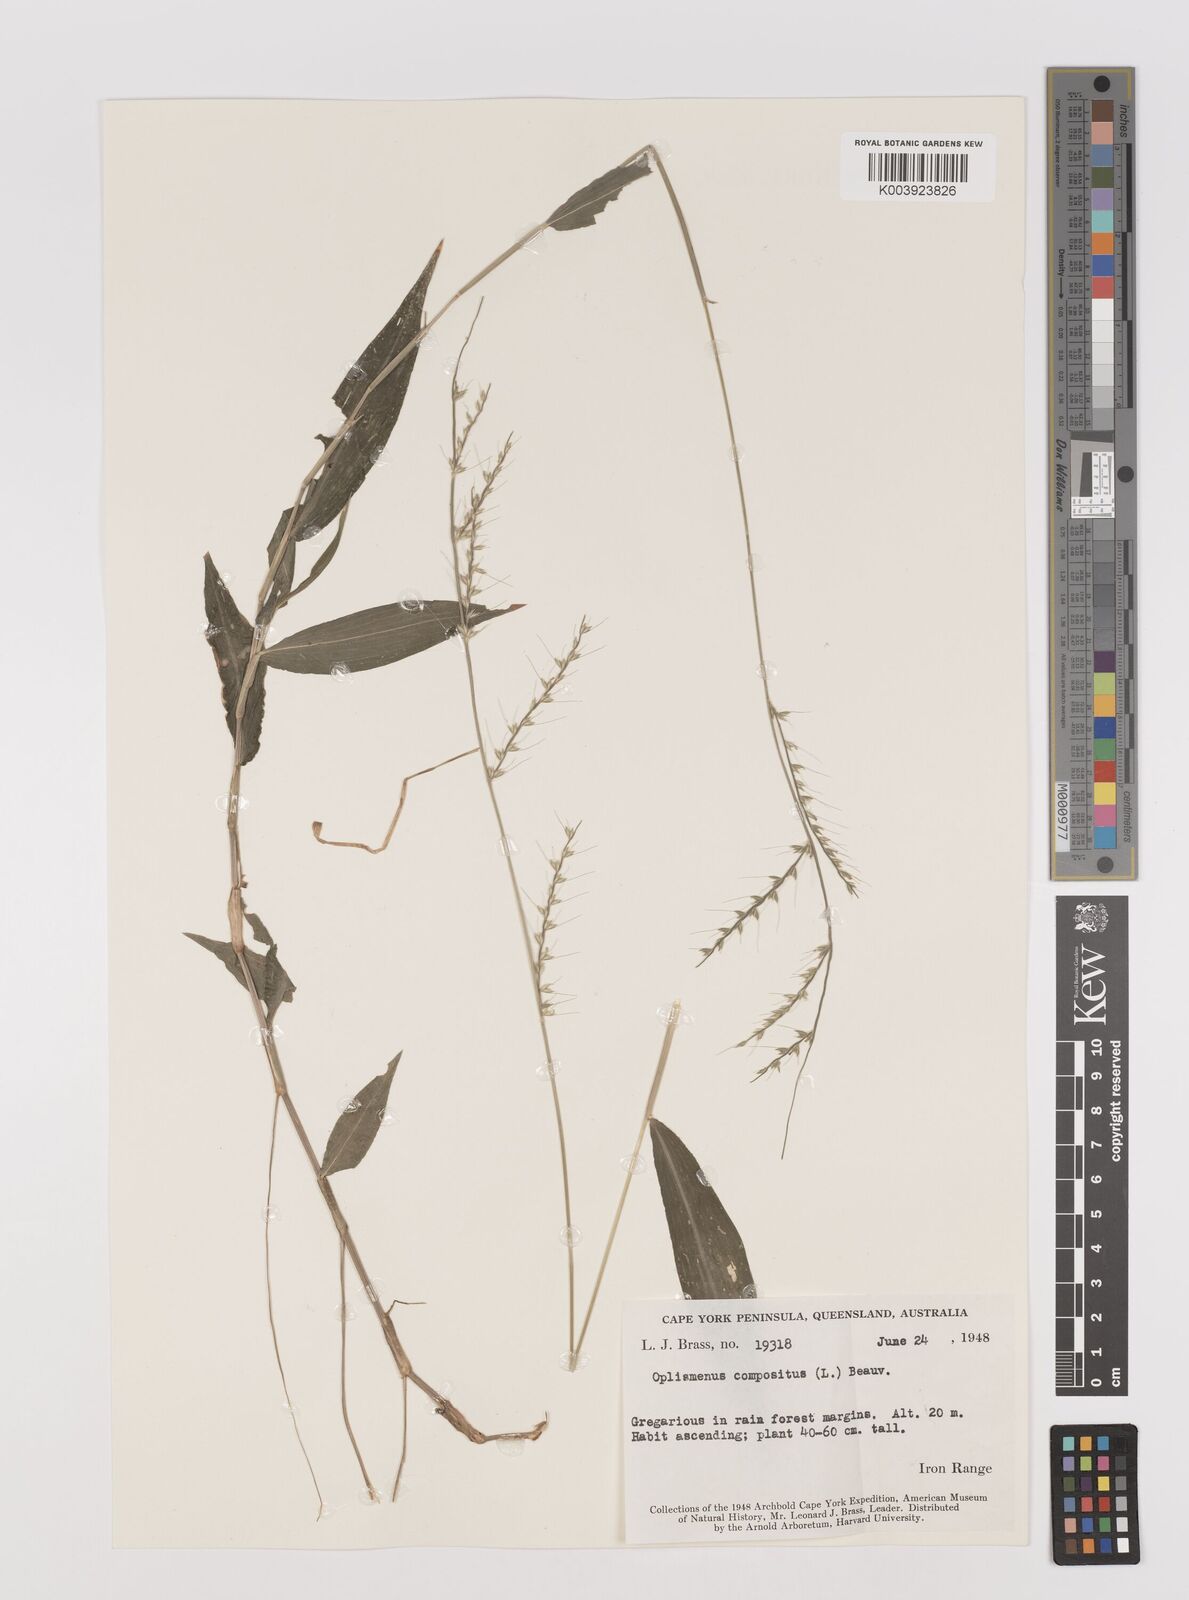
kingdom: Plantae
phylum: Tracheophyta
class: Liliopsida
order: Poales
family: Poaceae
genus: Oplismenus
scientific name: Oplismenus compositus
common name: Running mountain grass
